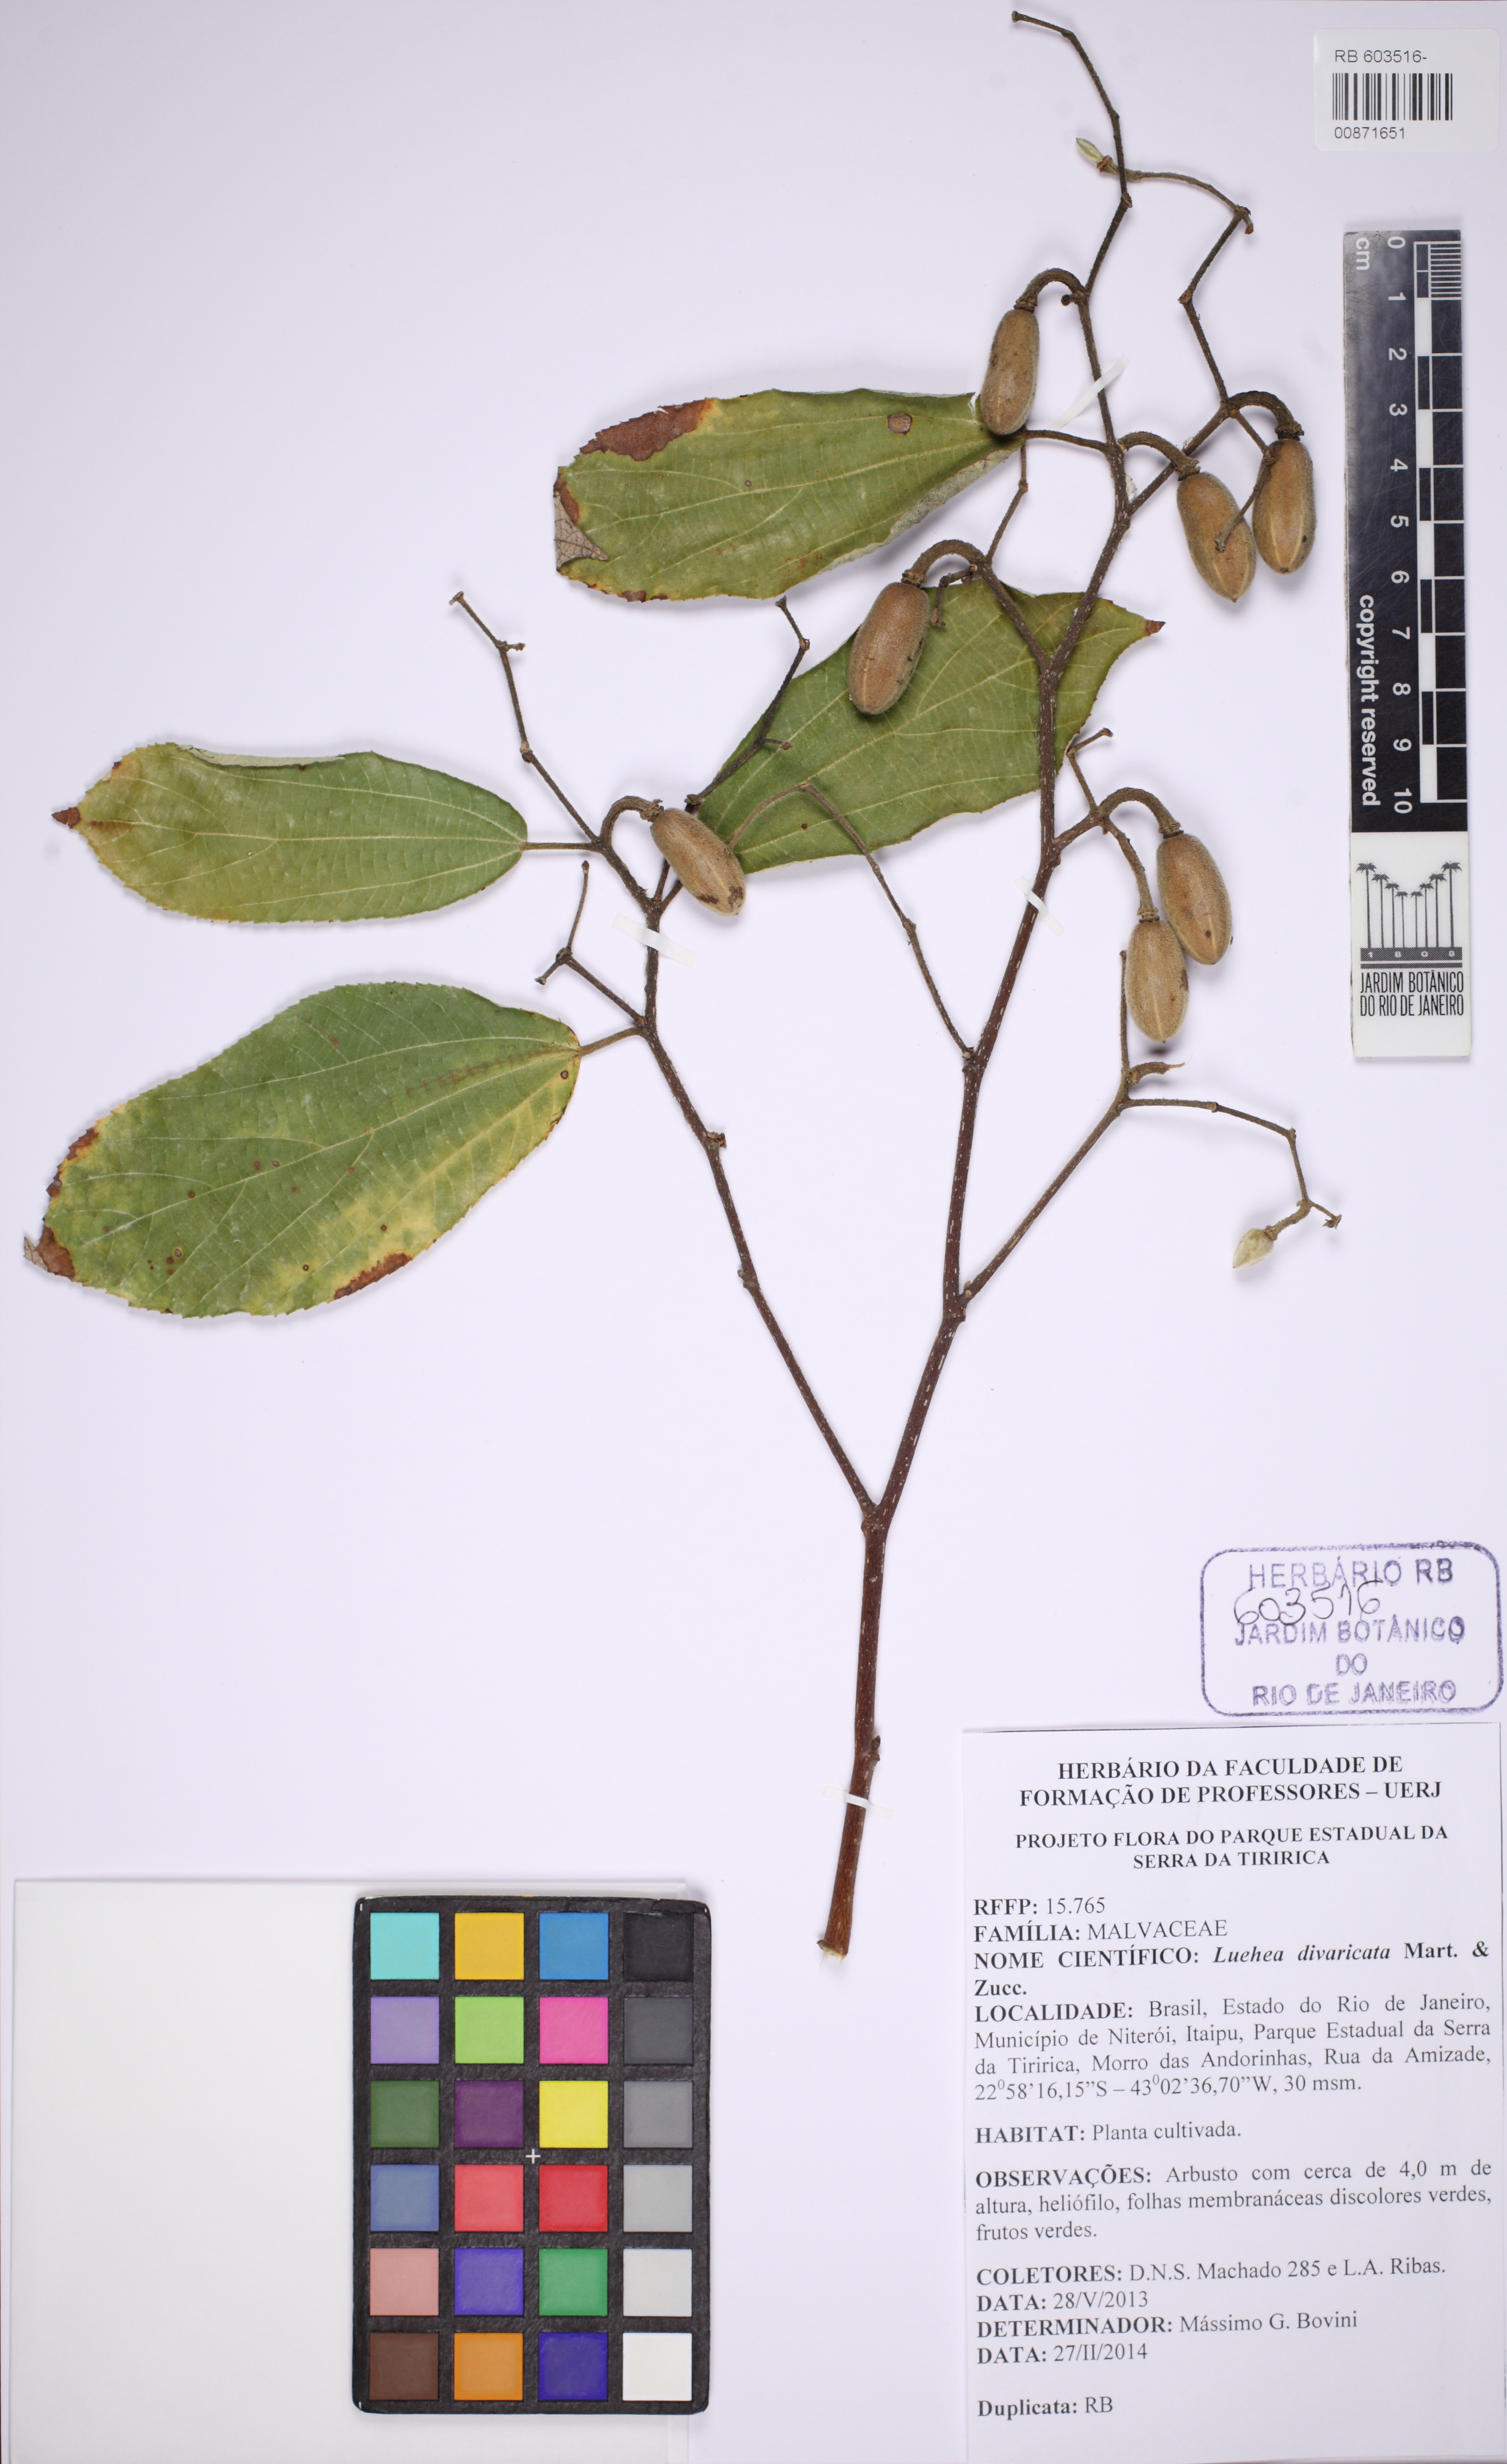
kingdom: Plantae
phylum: Tracheophyta
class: Magnoliopsida
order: Malvales
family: Malvaceae
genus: Luehea
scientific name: Luehea paniculata
